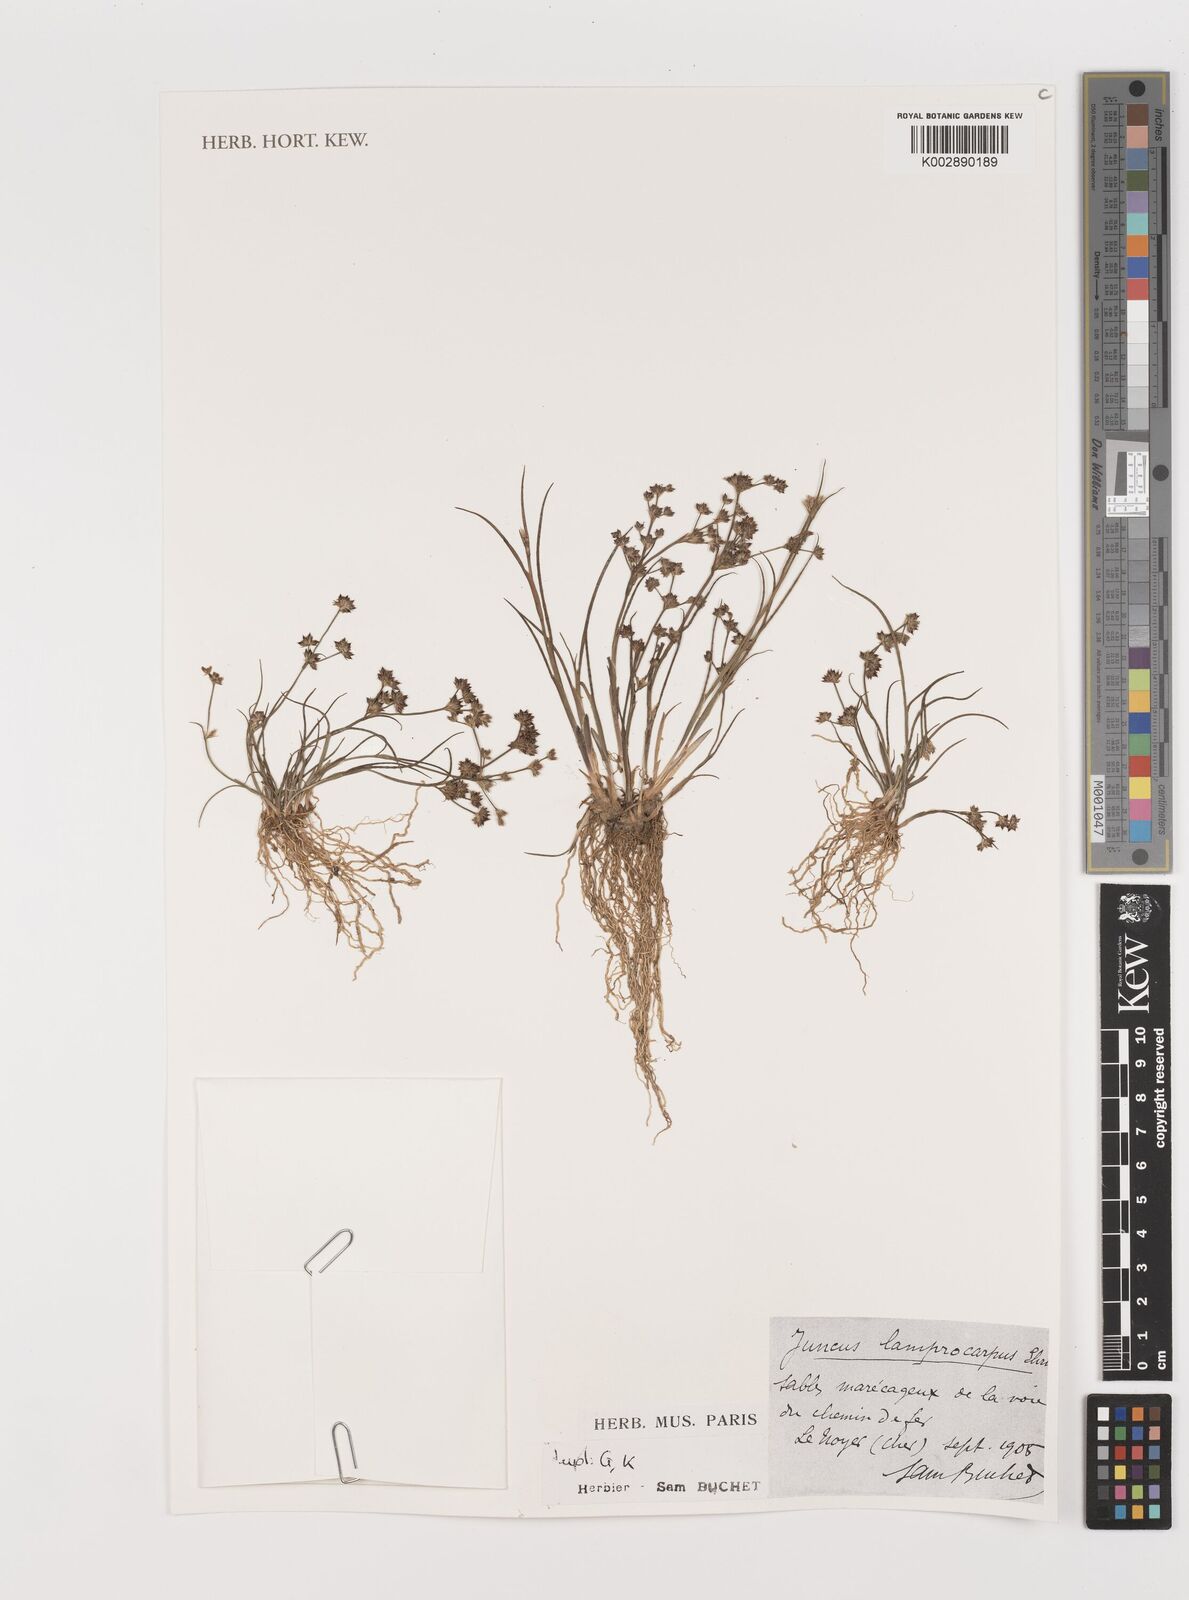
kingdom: Plantae
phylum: Tracheophyta
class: Liliopsida
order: Poales
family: Juncaceae
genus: Juncus
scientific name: Juncus articulatus
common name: Jointed rush
